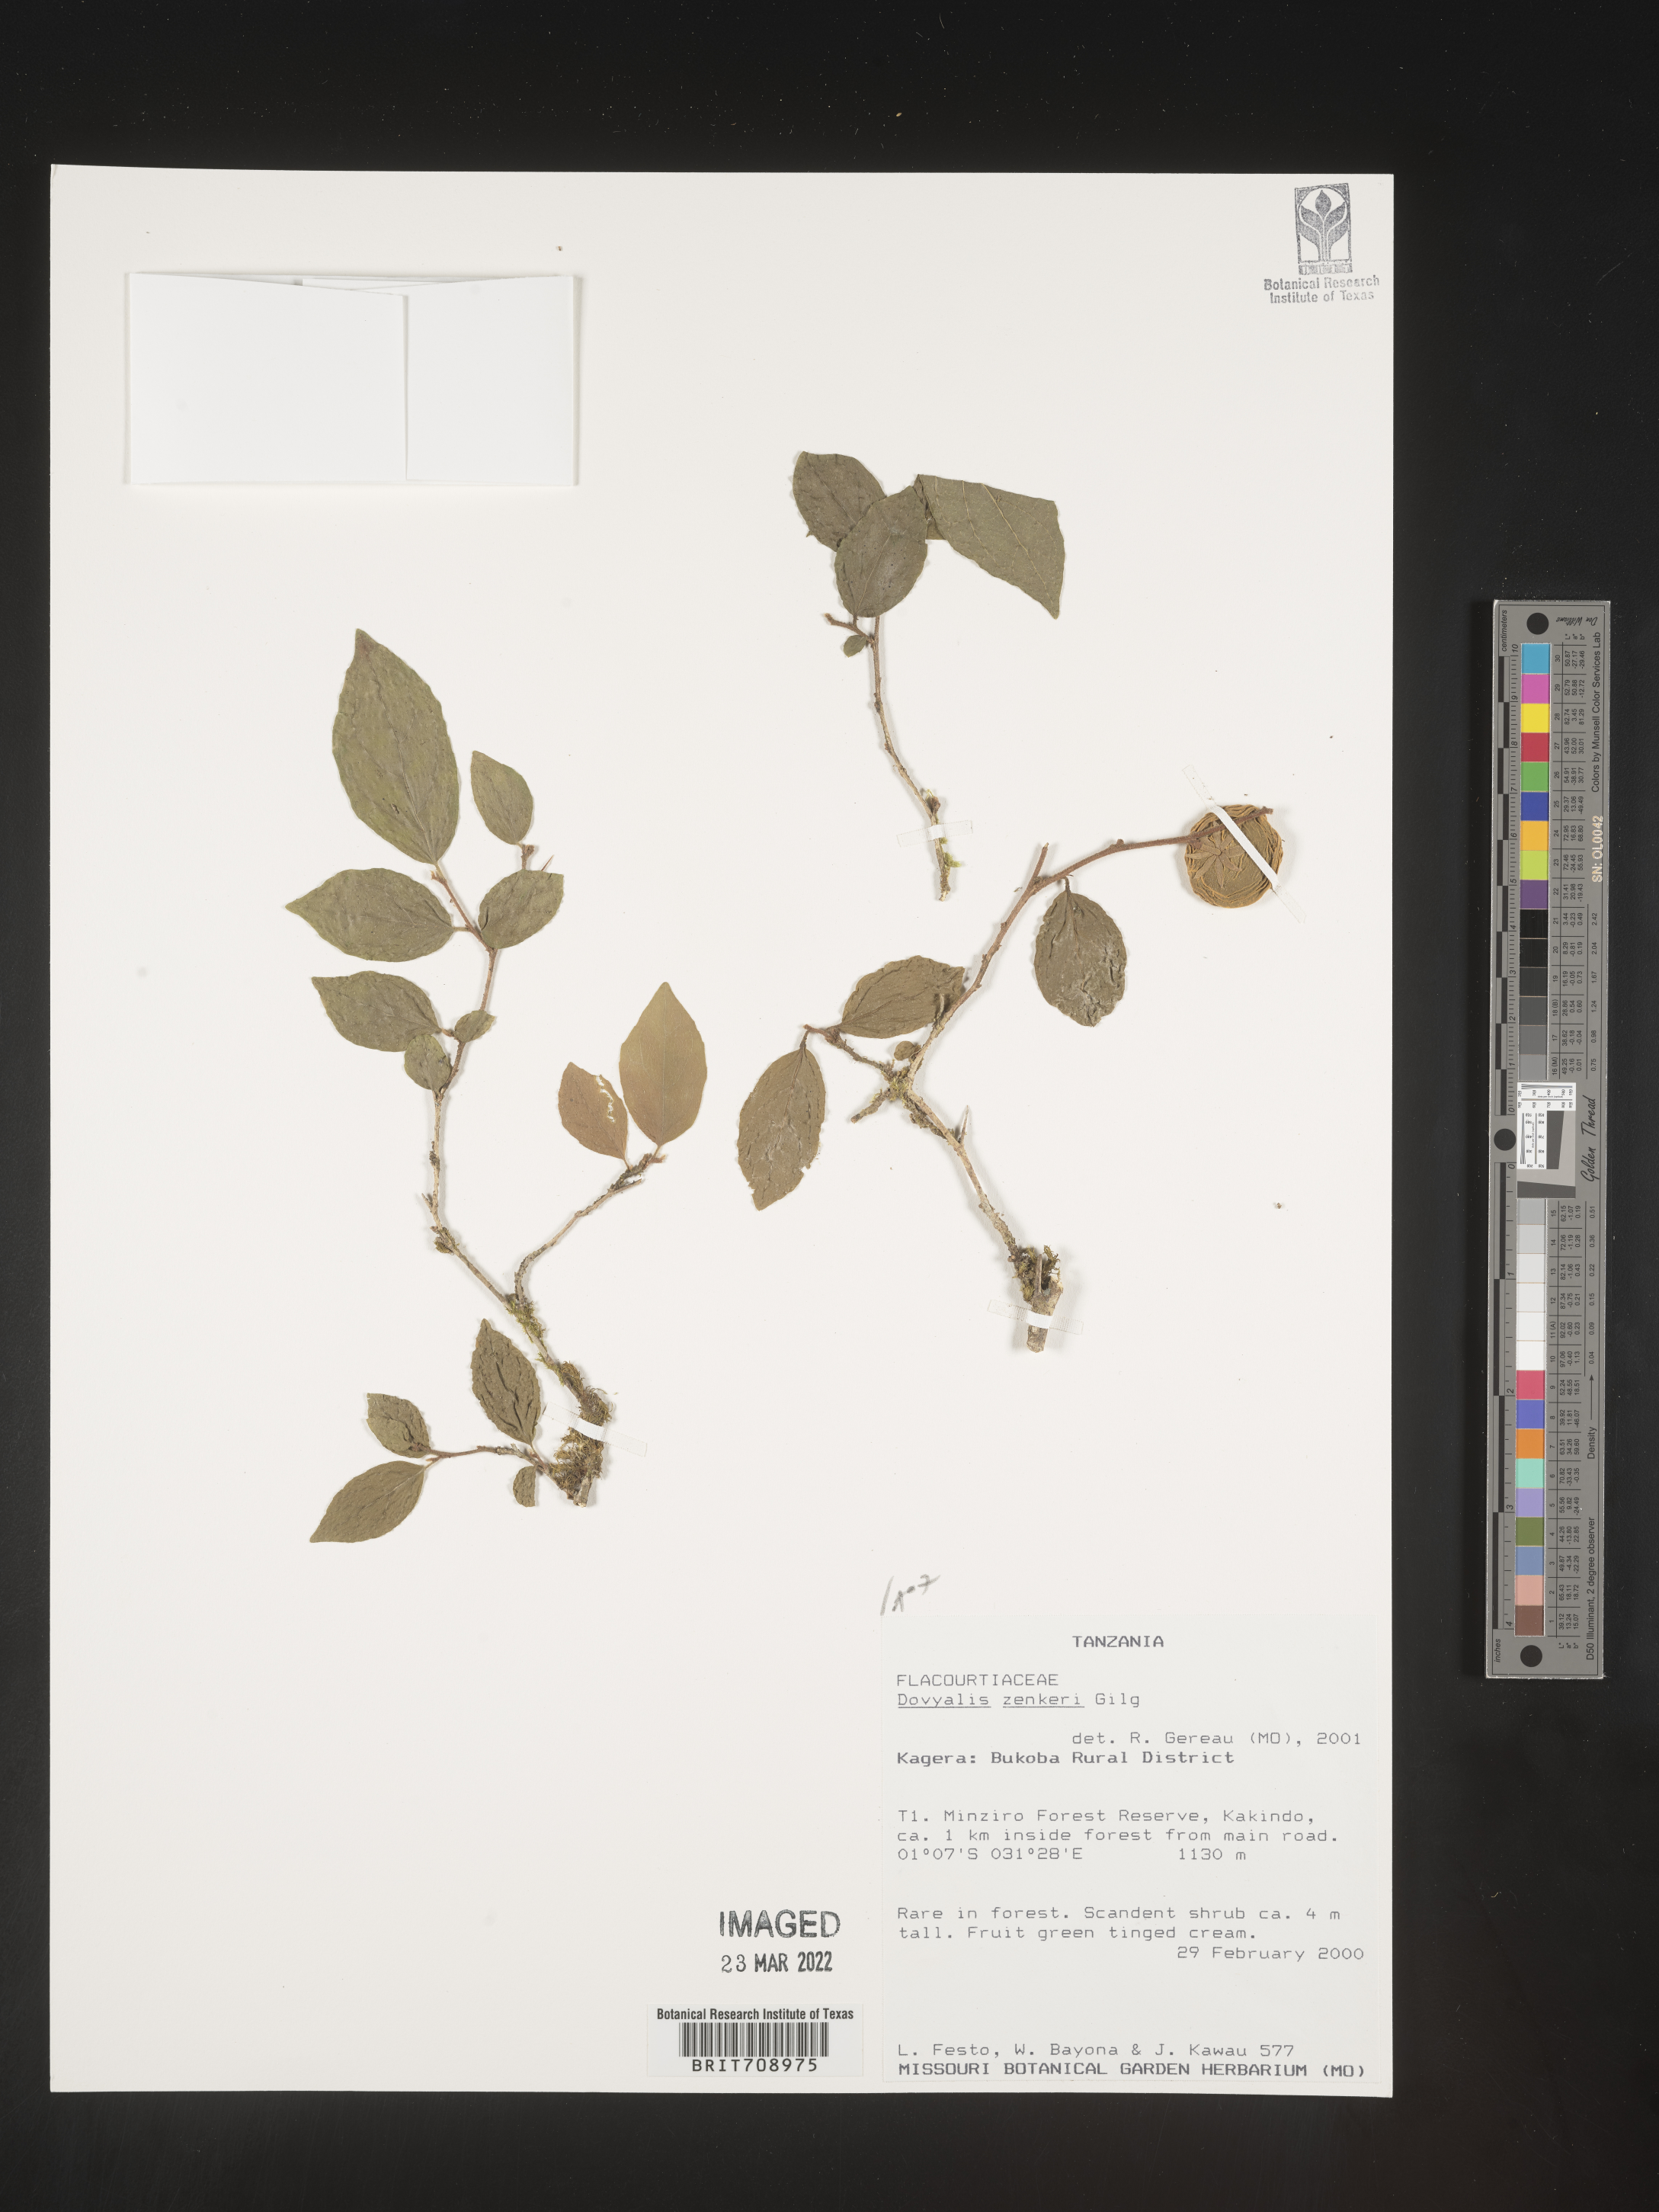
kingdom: Plantae
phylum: Tracheophyta
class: Magnoliopsida
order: Malpighiales
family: Salicaceae
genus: Dovyalis
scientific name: Dovyalis
